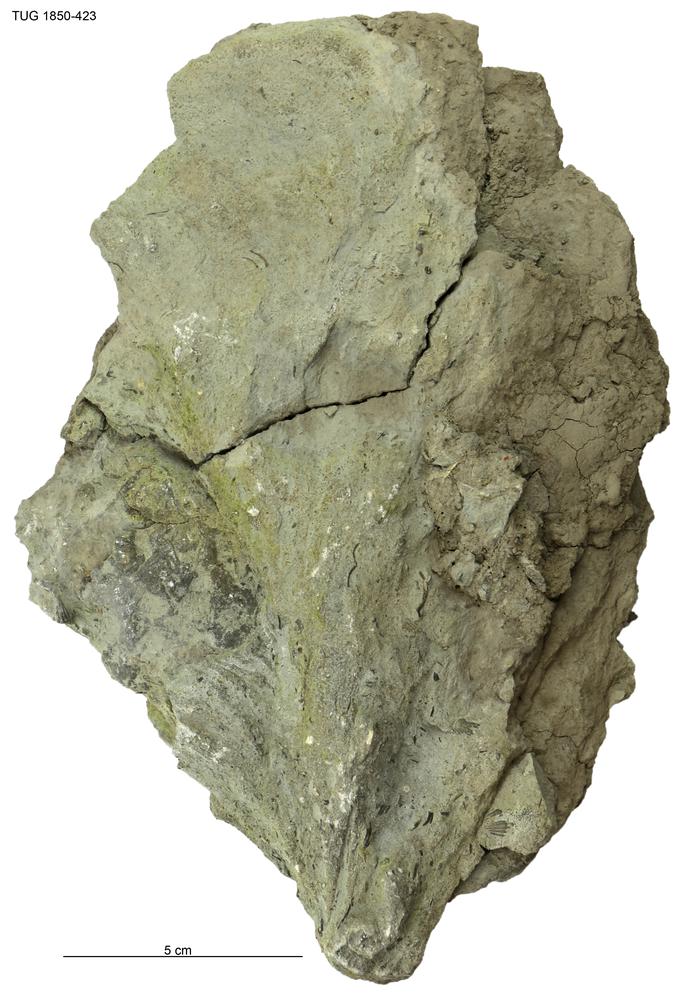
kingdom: Chromista
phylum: Ochrophyta
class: Phaeophyceae
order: Laminariales
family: Laminariaceae
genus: Postelsiopsis
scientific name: Postelsiopsis
